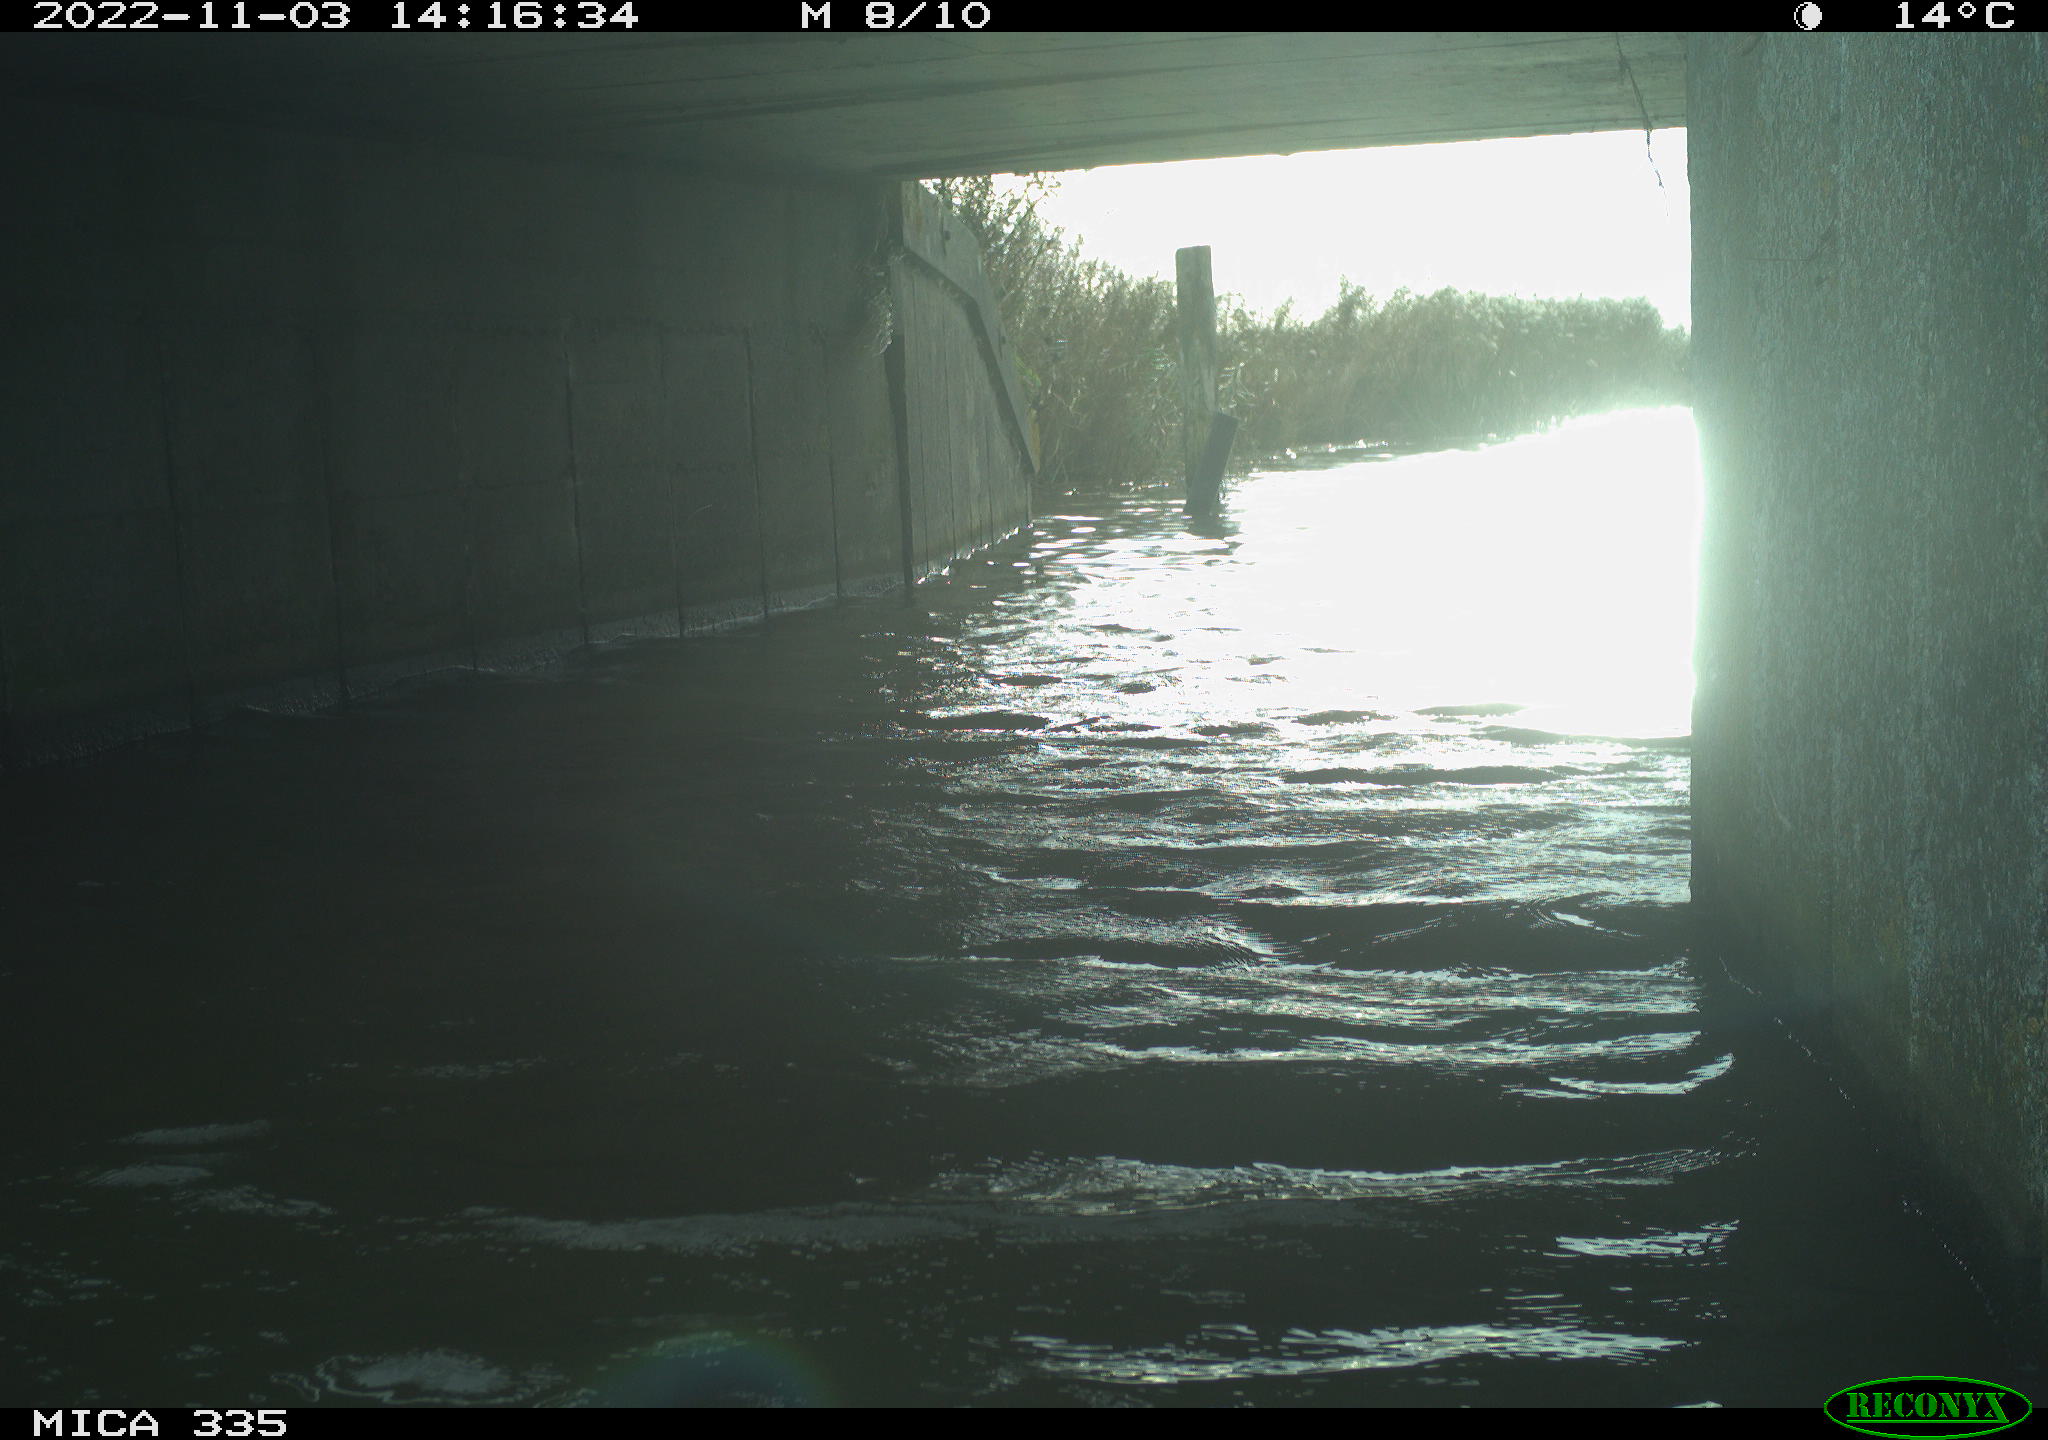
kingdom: Animalia
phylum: Chordata
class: Aves
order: Anseriformes
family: Anatidae
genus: Anas
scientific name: Anas platyrhynchos
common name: Mallard
